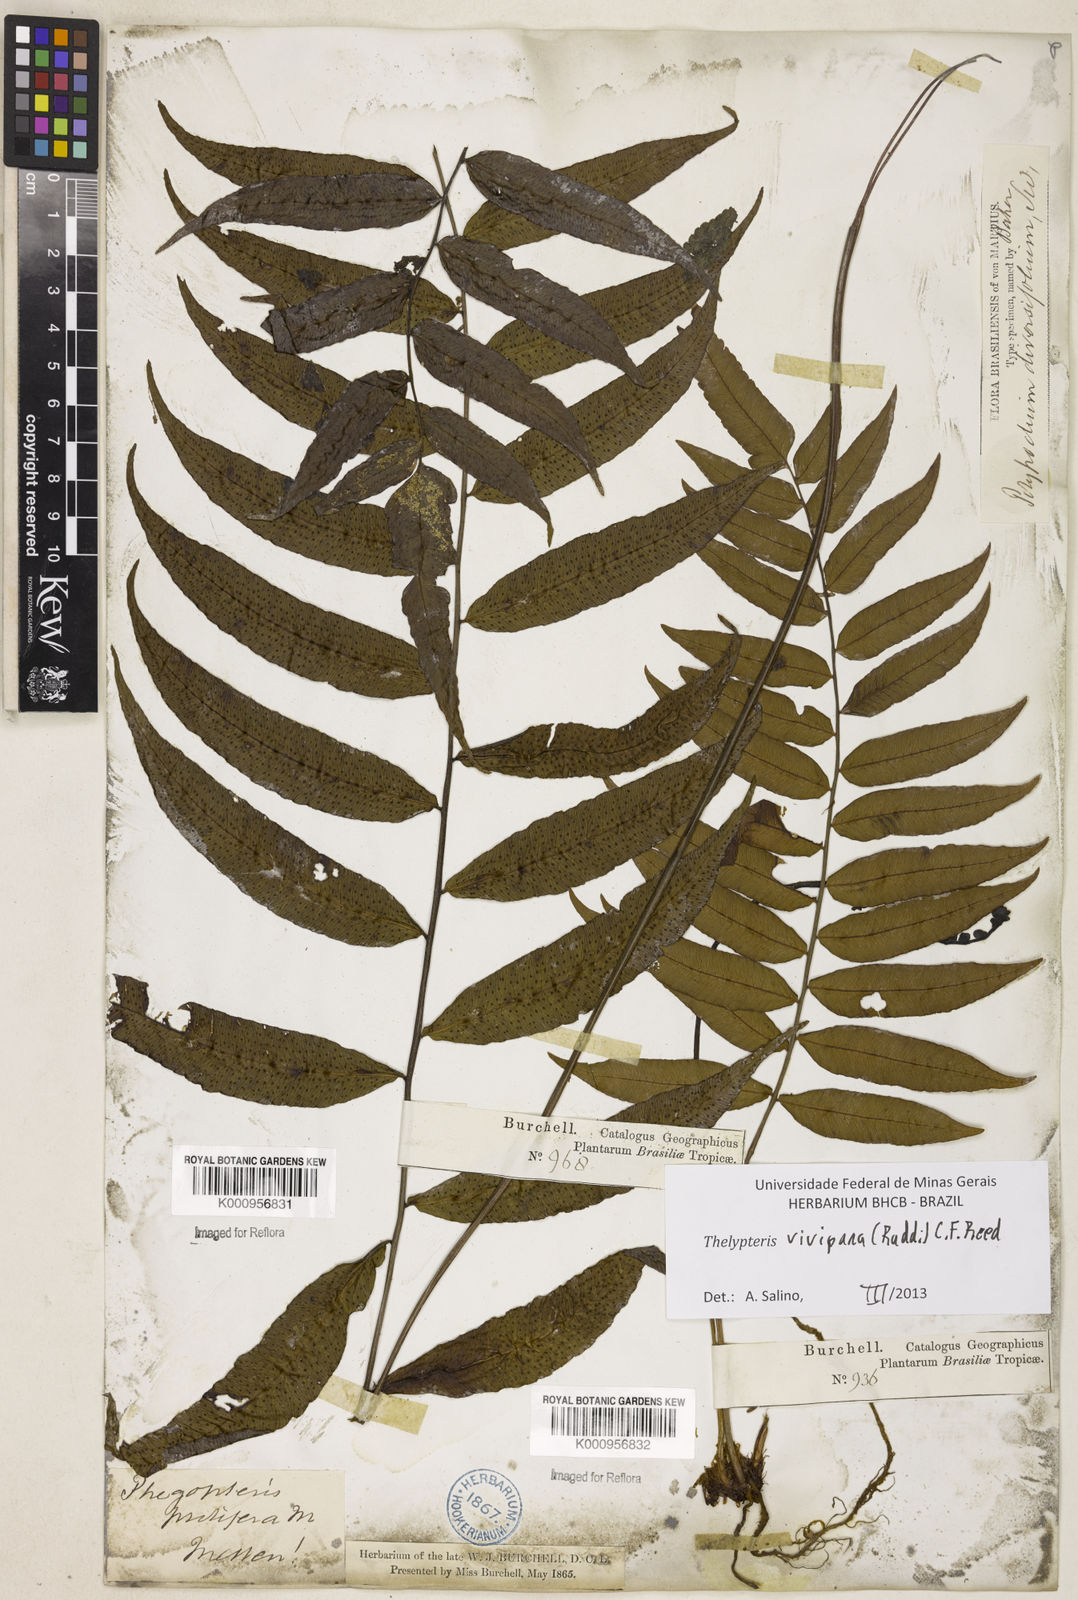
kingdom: Plantae
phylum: Tracheophyta
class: Polypodiopsida
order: Polypodiales
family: Thelypteridaceae
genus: Goniopteris
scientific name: Goniopteris vivipara
